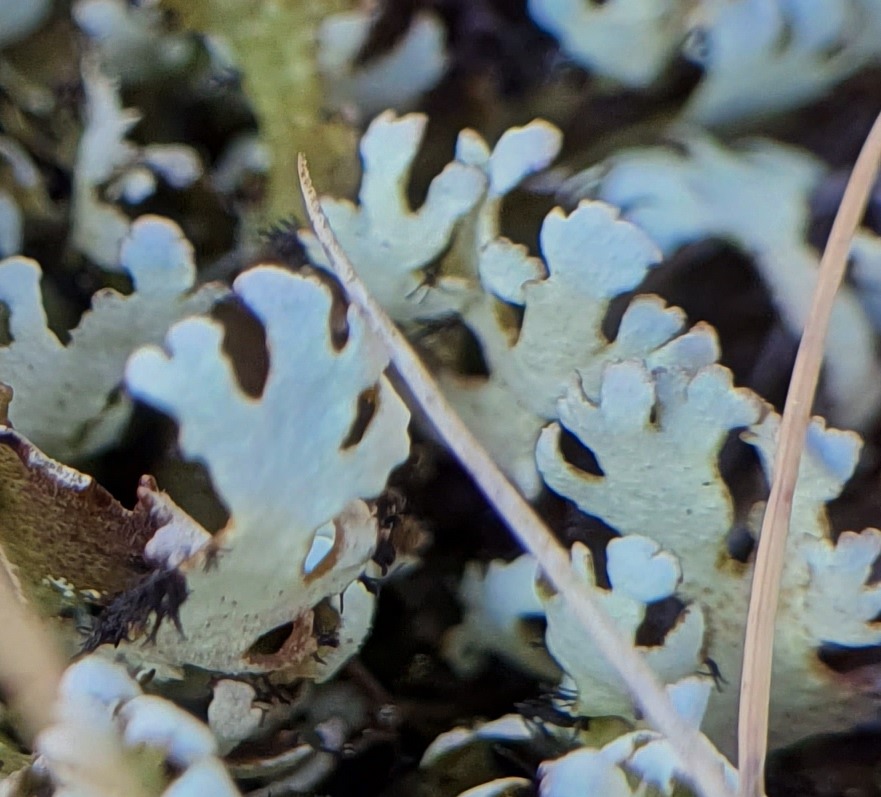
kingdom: Fungi
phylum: Ascomycota
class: Lecanoromycetes
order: Lecanorales
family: Cladoniaceae
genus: Cladonia
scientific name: Cladonia foliacea
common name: Fliget bægerlav
